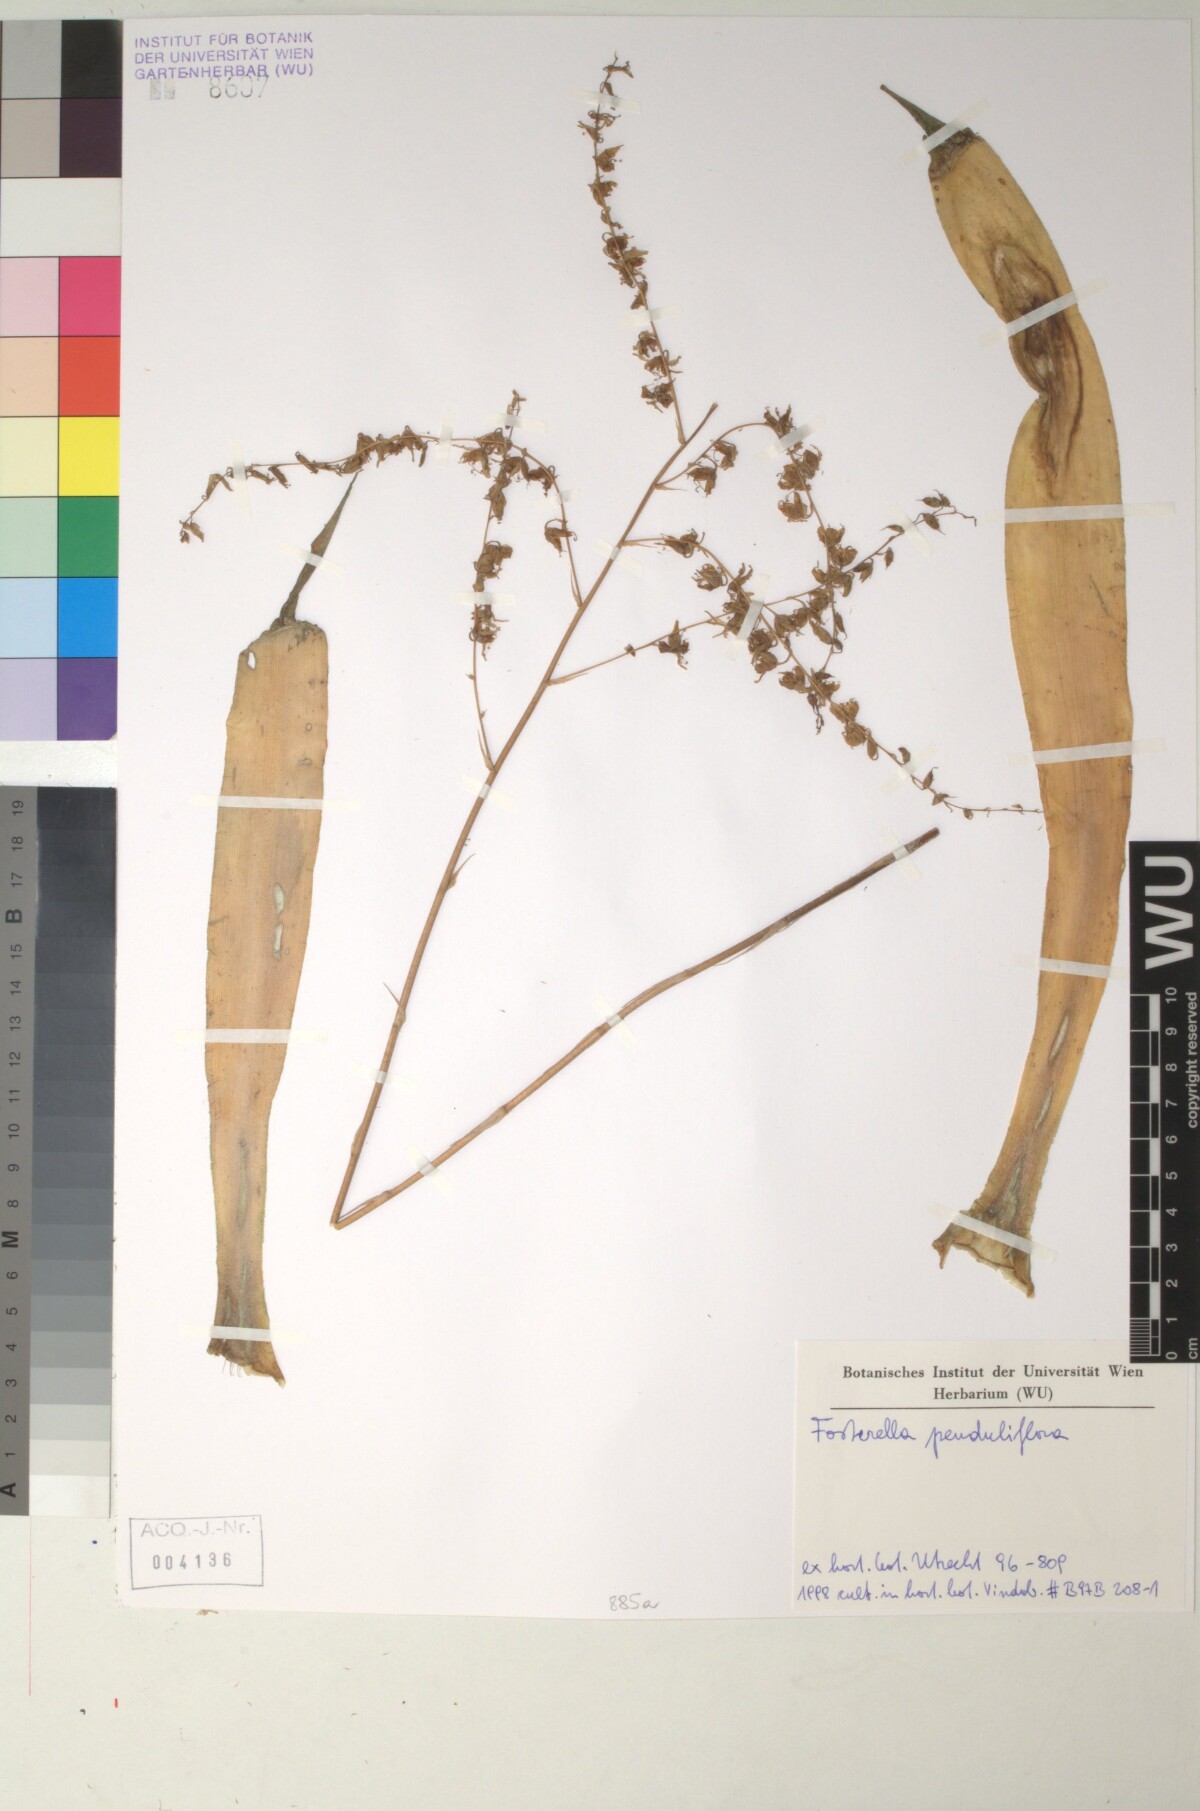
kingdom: Plantae
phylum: Tracheophyta
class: Liliopsida
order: Poales
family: Bromeliaceae
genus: Fosterella
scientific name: Fosterella penduliflora
